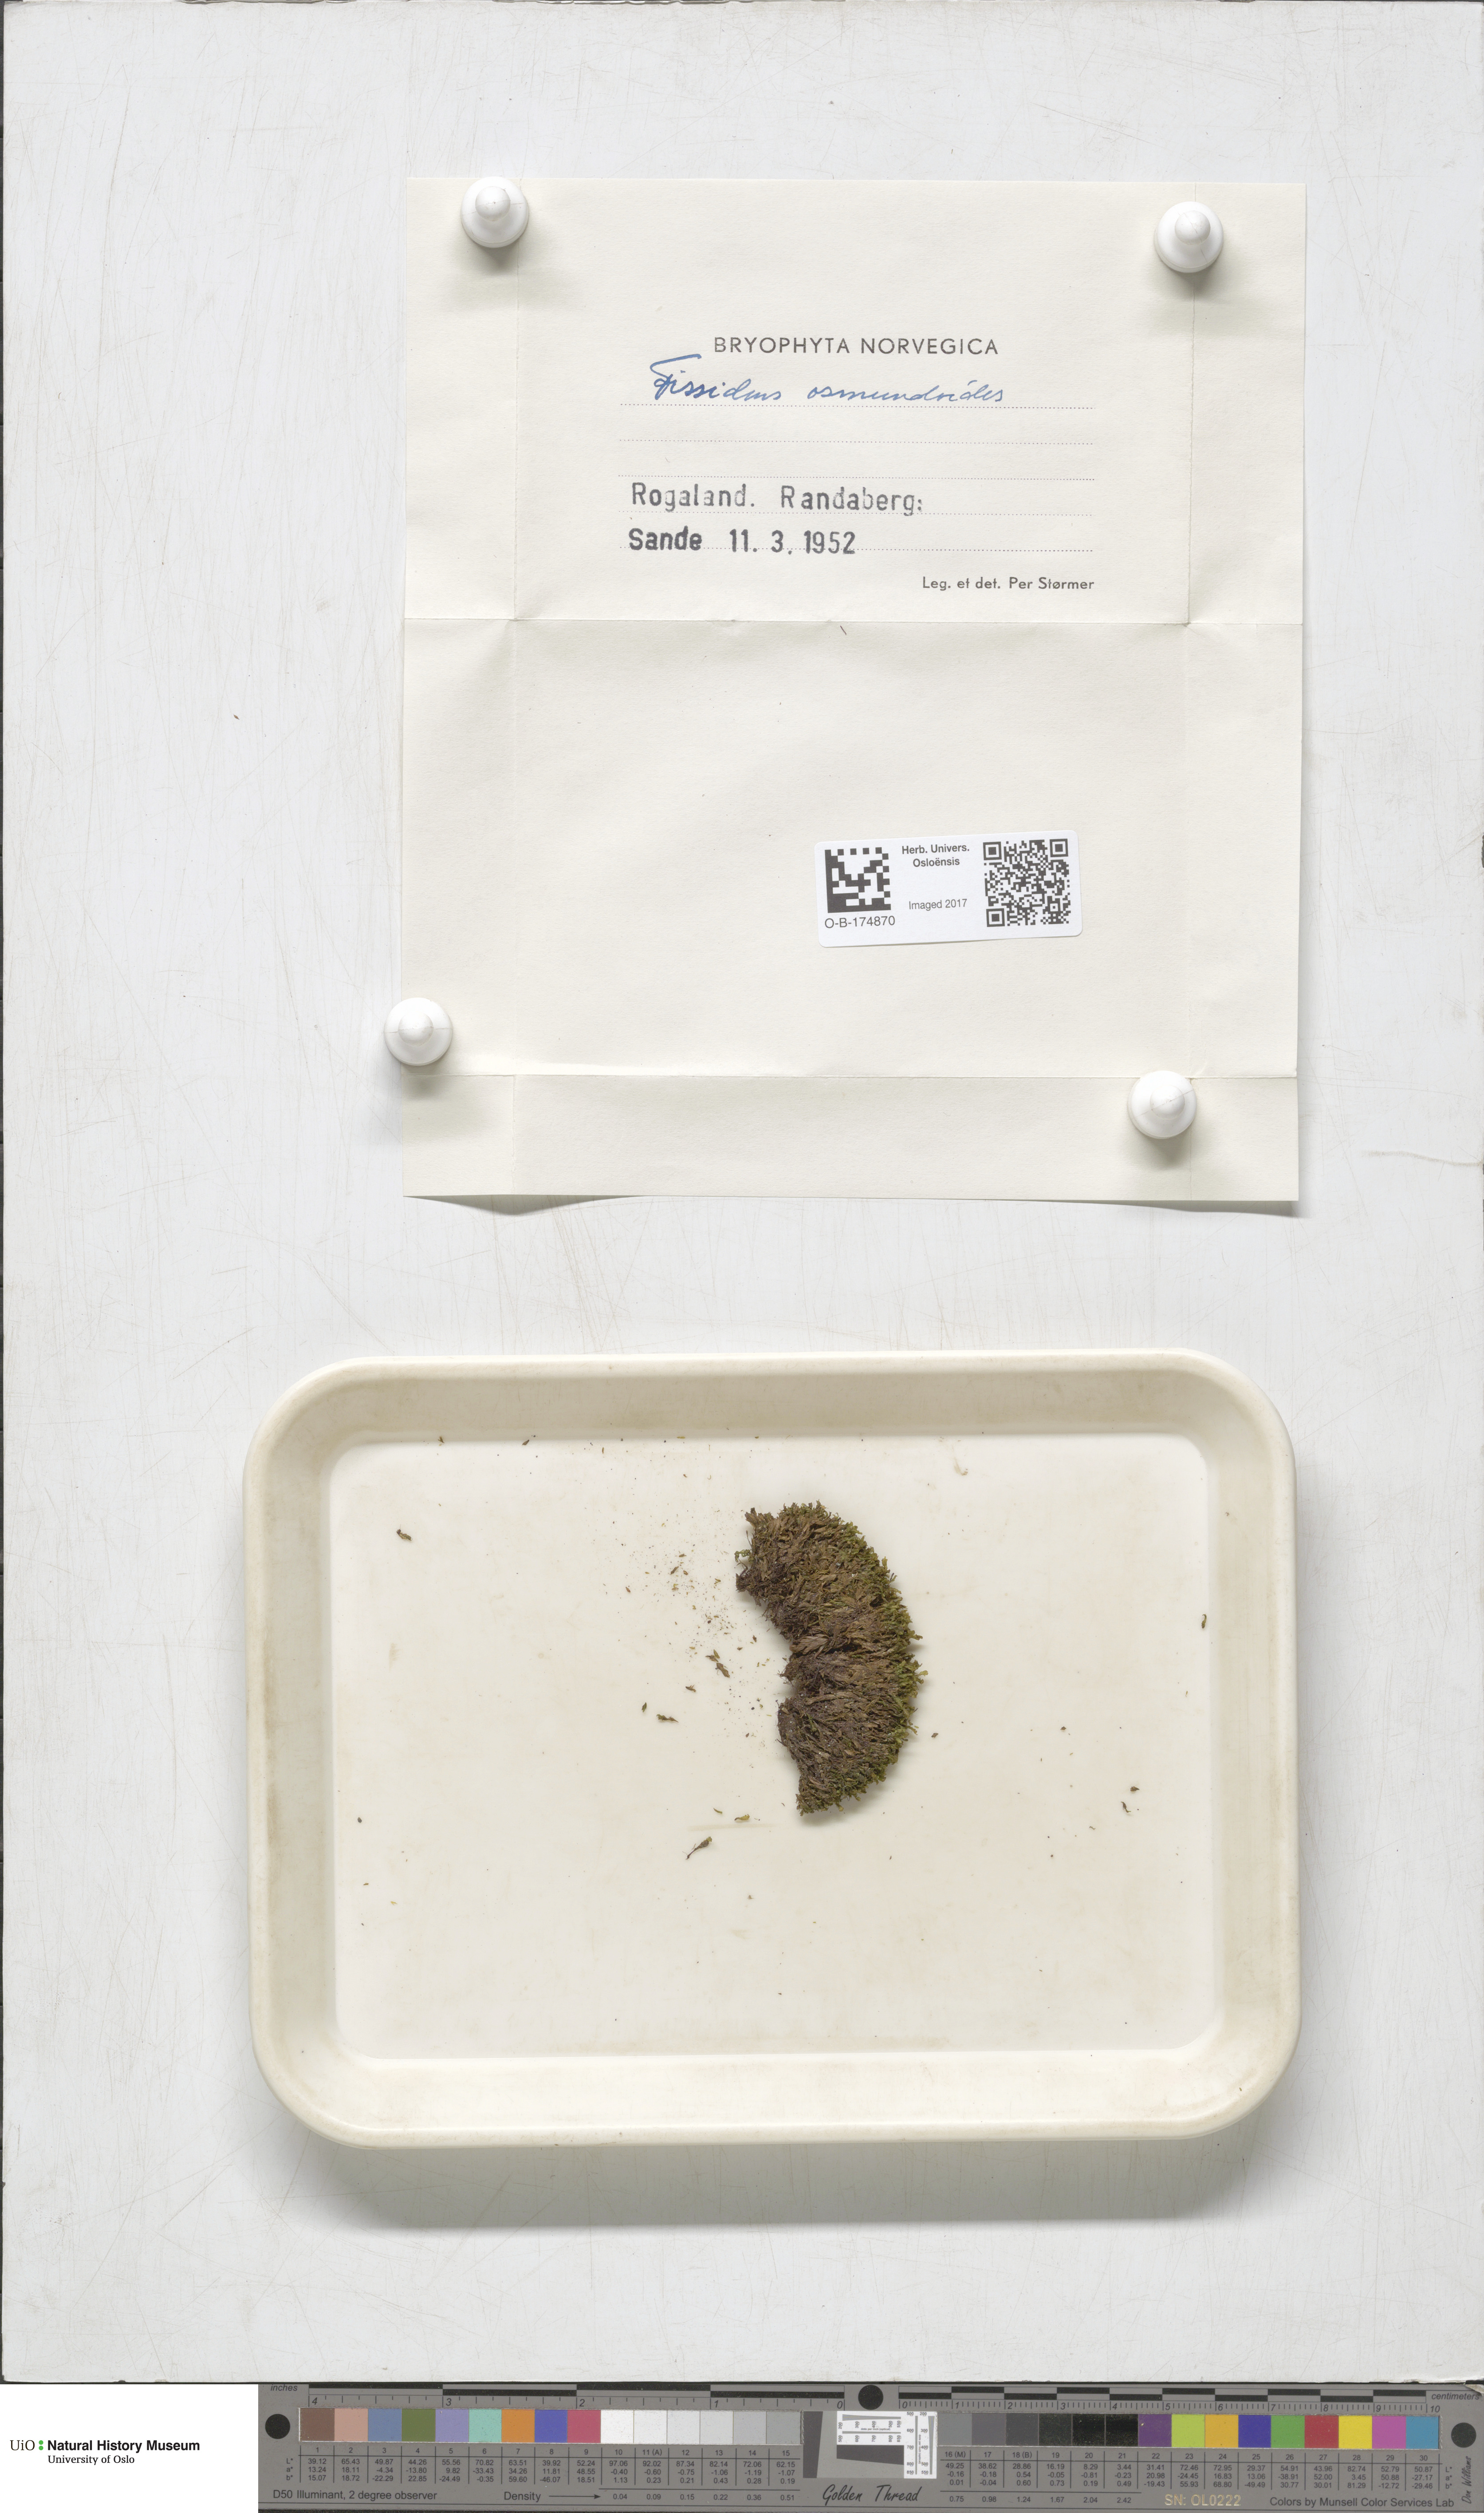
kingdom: Plantae
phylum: Bryophyta
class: Bryopsida
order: Dicranales
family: Fissidentaceae
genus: Fissidens
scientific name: Fissidens osmundoides
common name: Purple-stalked pocket moss
